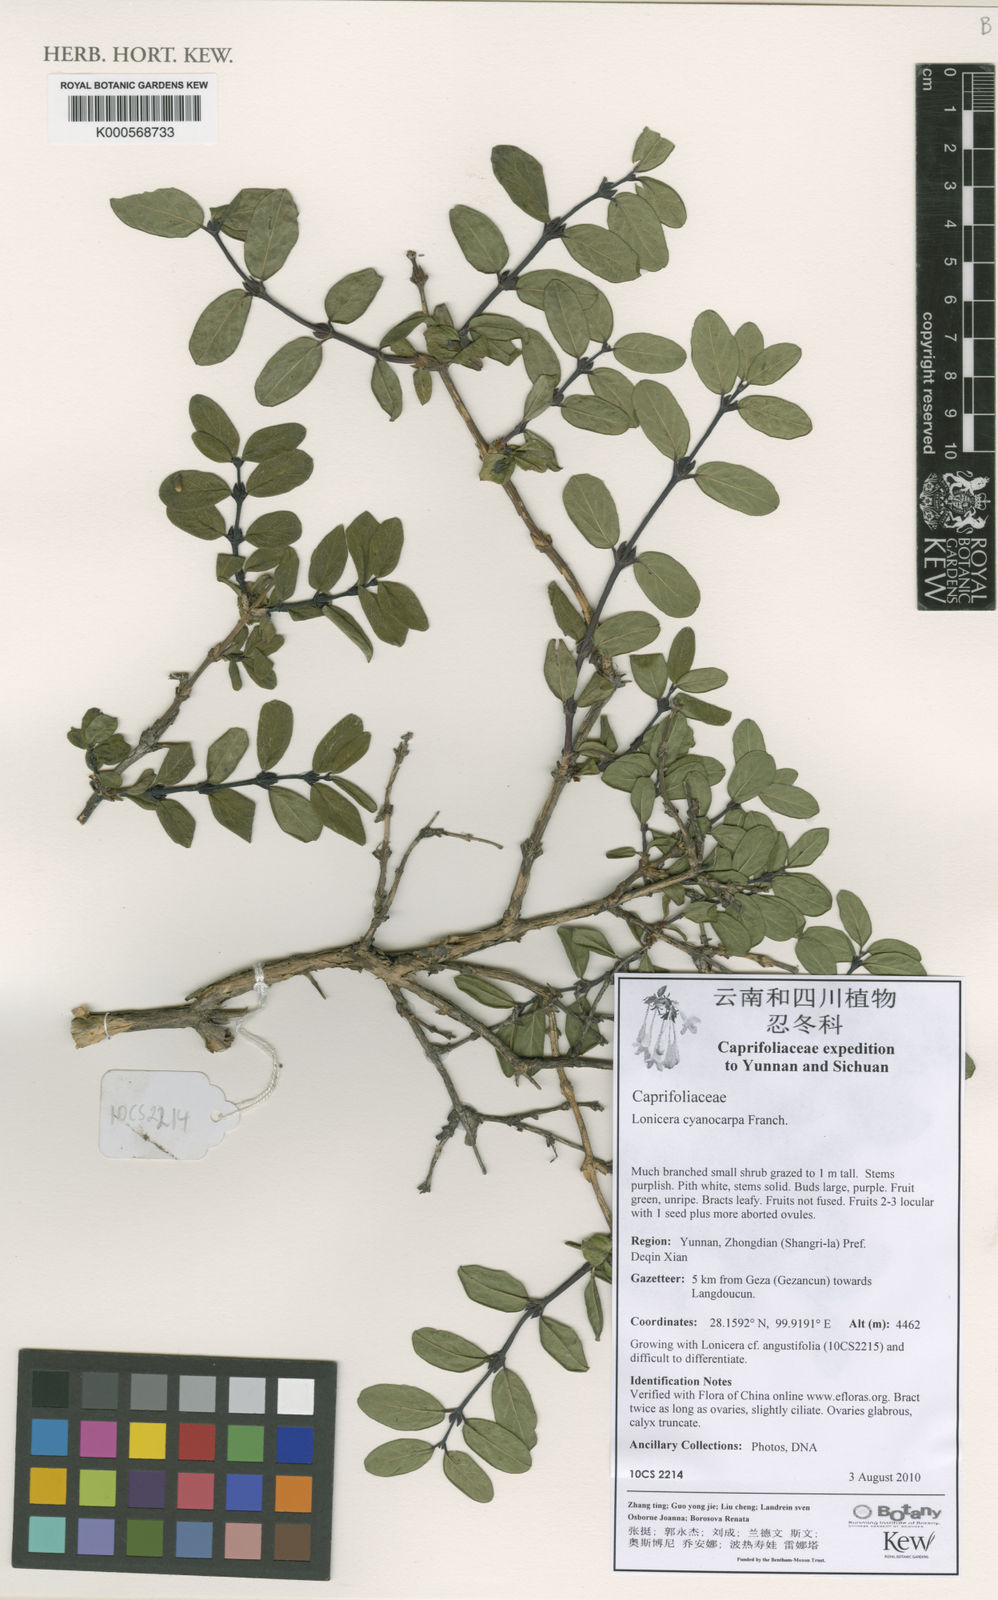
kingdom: Plantae
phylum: Tracheophyta
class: Magnoliopsida
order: Dipsacales
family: Caprifoliaceae
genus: Lonicera
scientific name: Lonicera cyanocarpa
